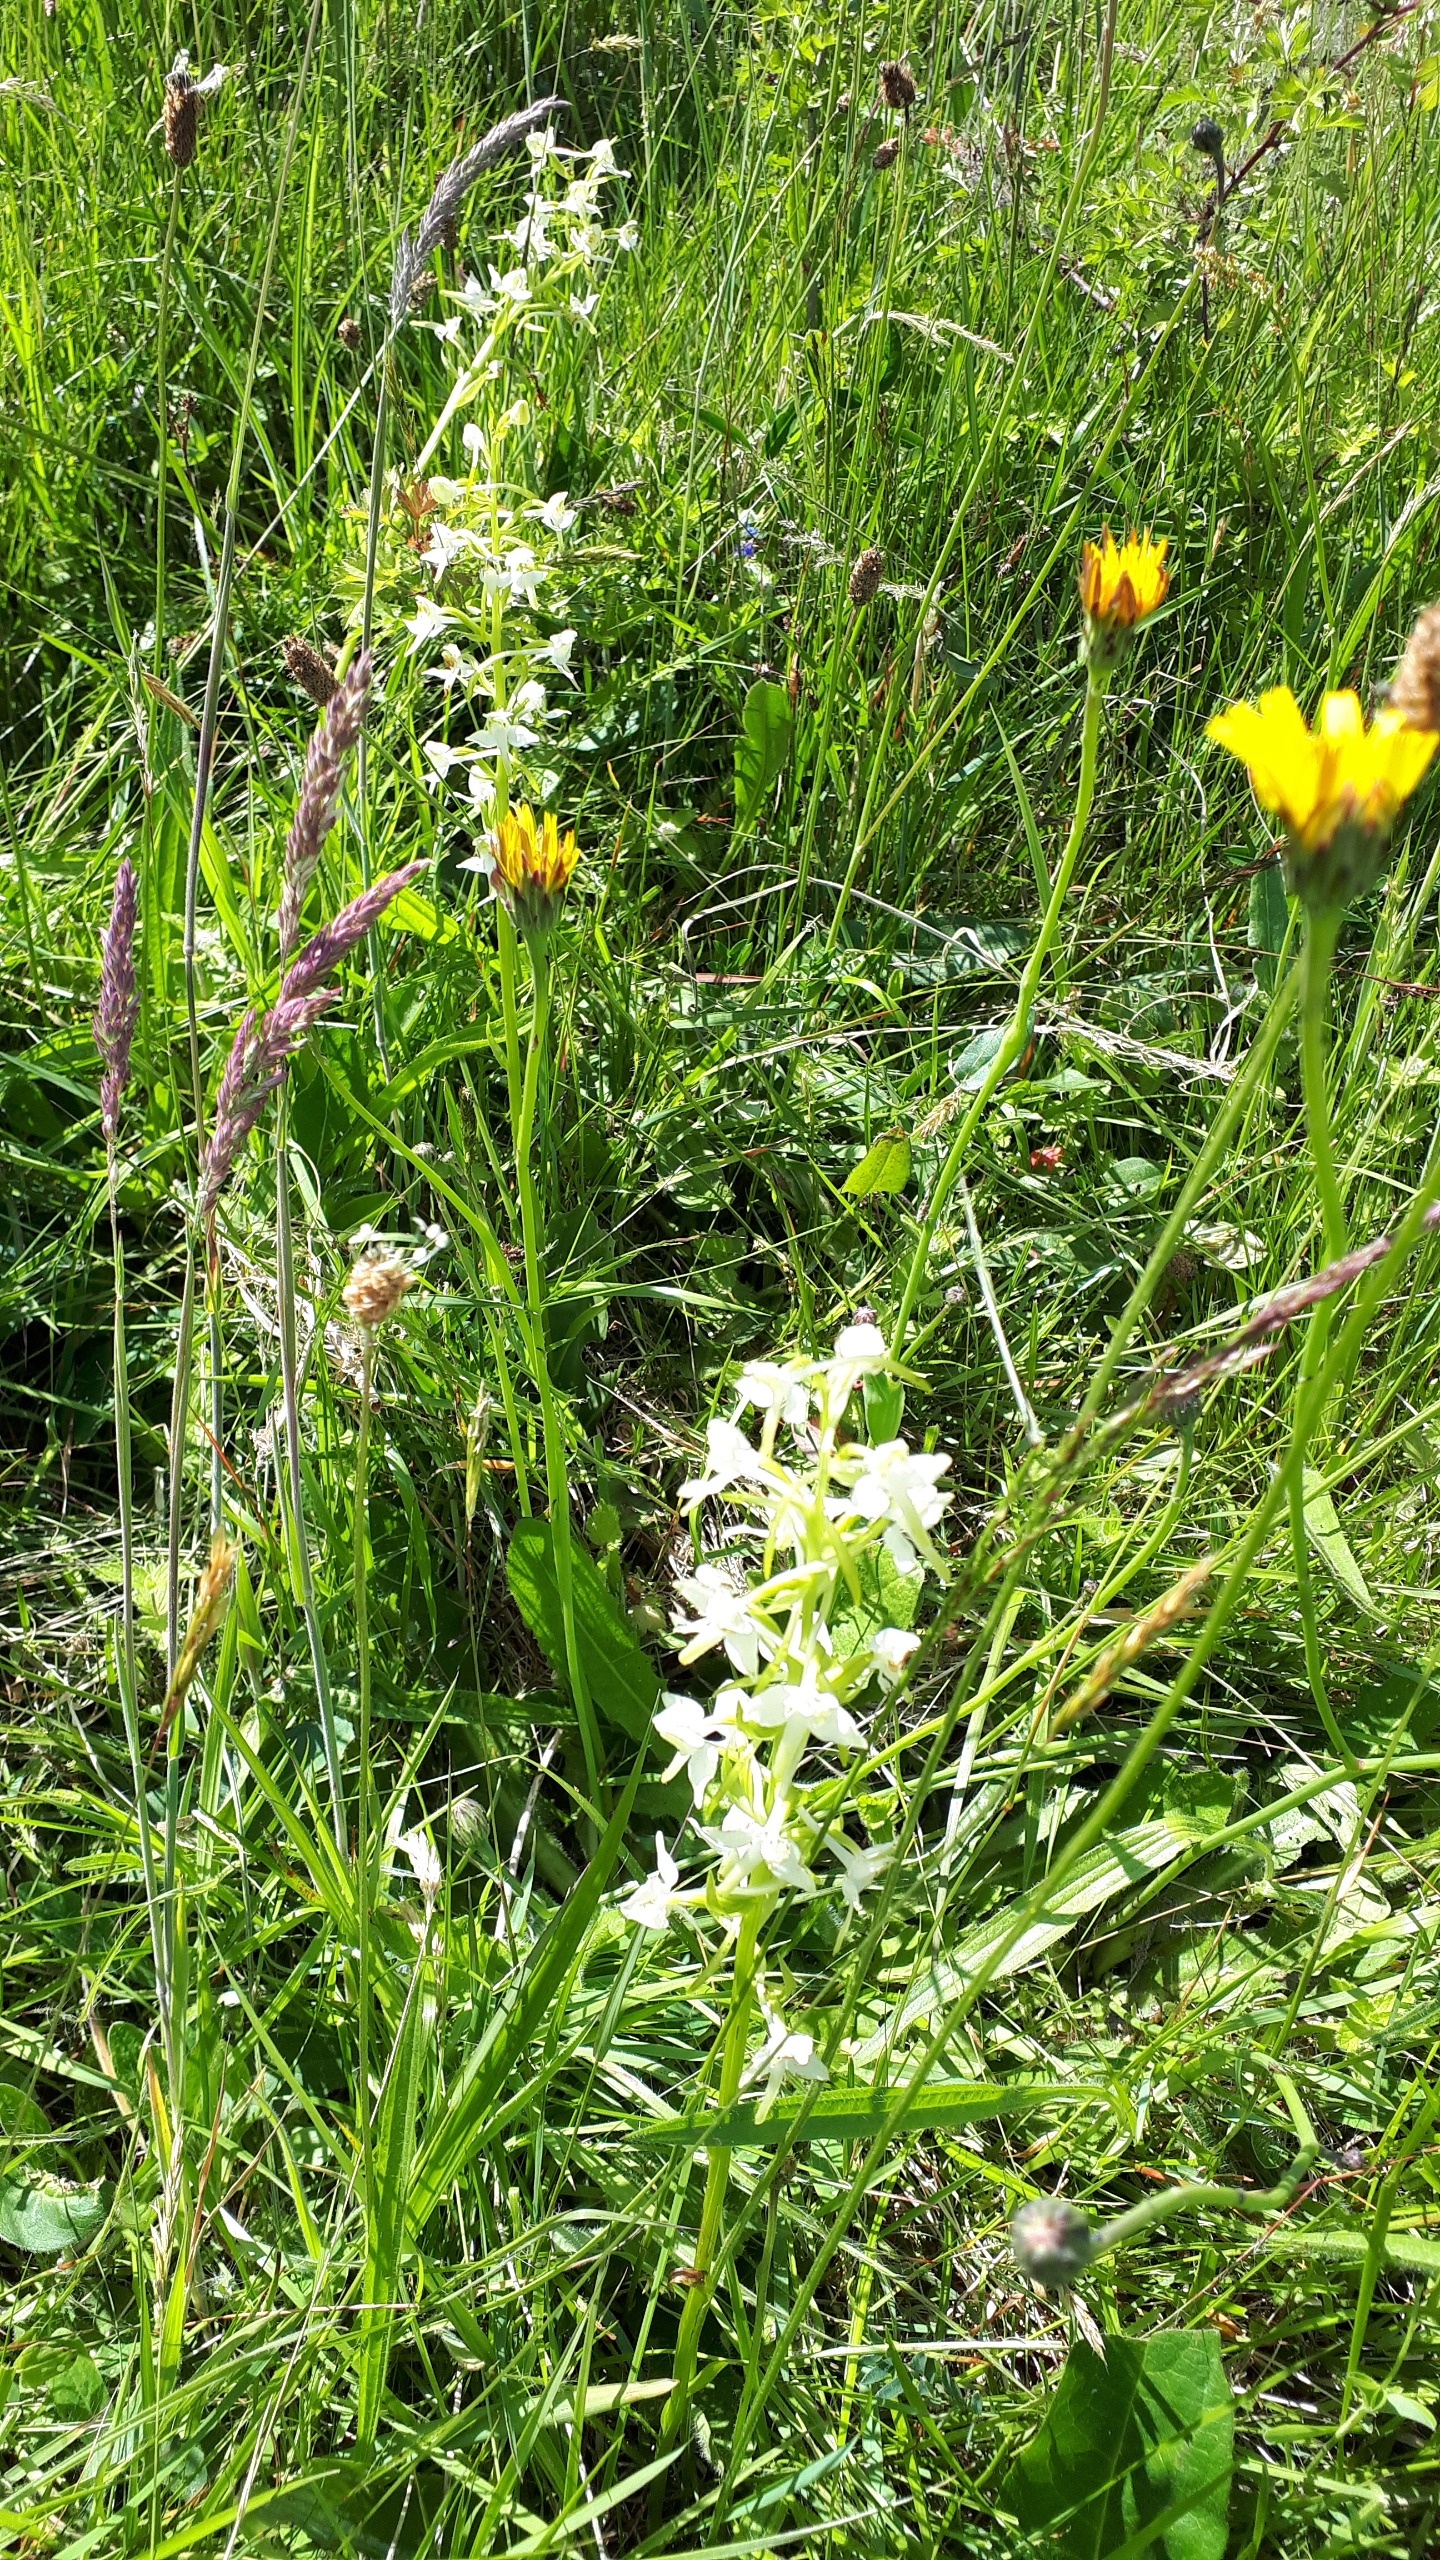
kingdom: Plantae
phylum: Tracheophyta
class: Liliopsida
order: Asparagales
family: Orchidaceae
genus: Platanthera
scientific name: Platanthera chlorantha
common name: Skov-gøgelilje
